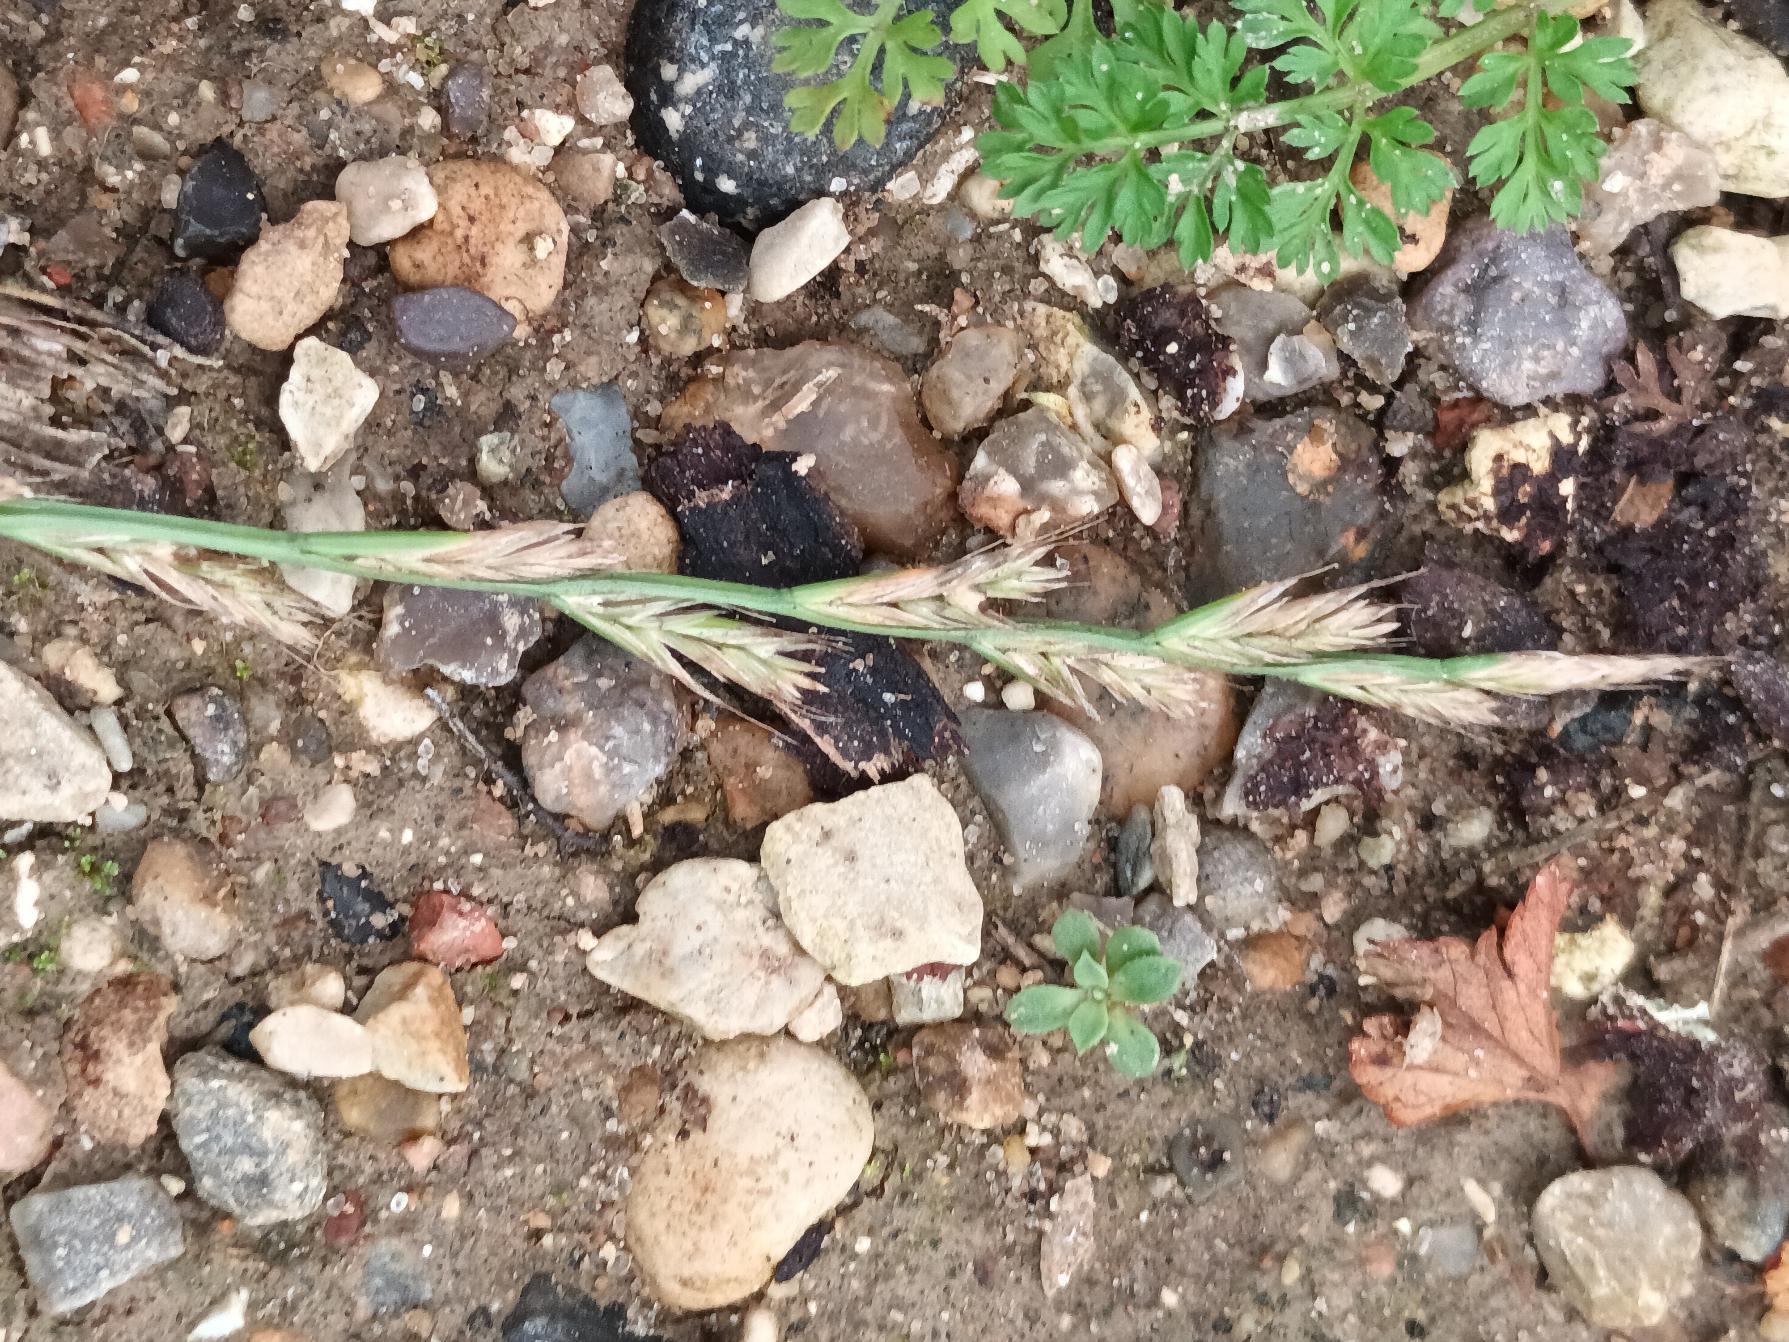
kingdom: Plantae
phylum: Tracheophyta
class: Liliopsida
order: Poales
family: Poaceae
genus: Lolium
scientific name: Lolium perenne
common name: Almindelig rajgræs
